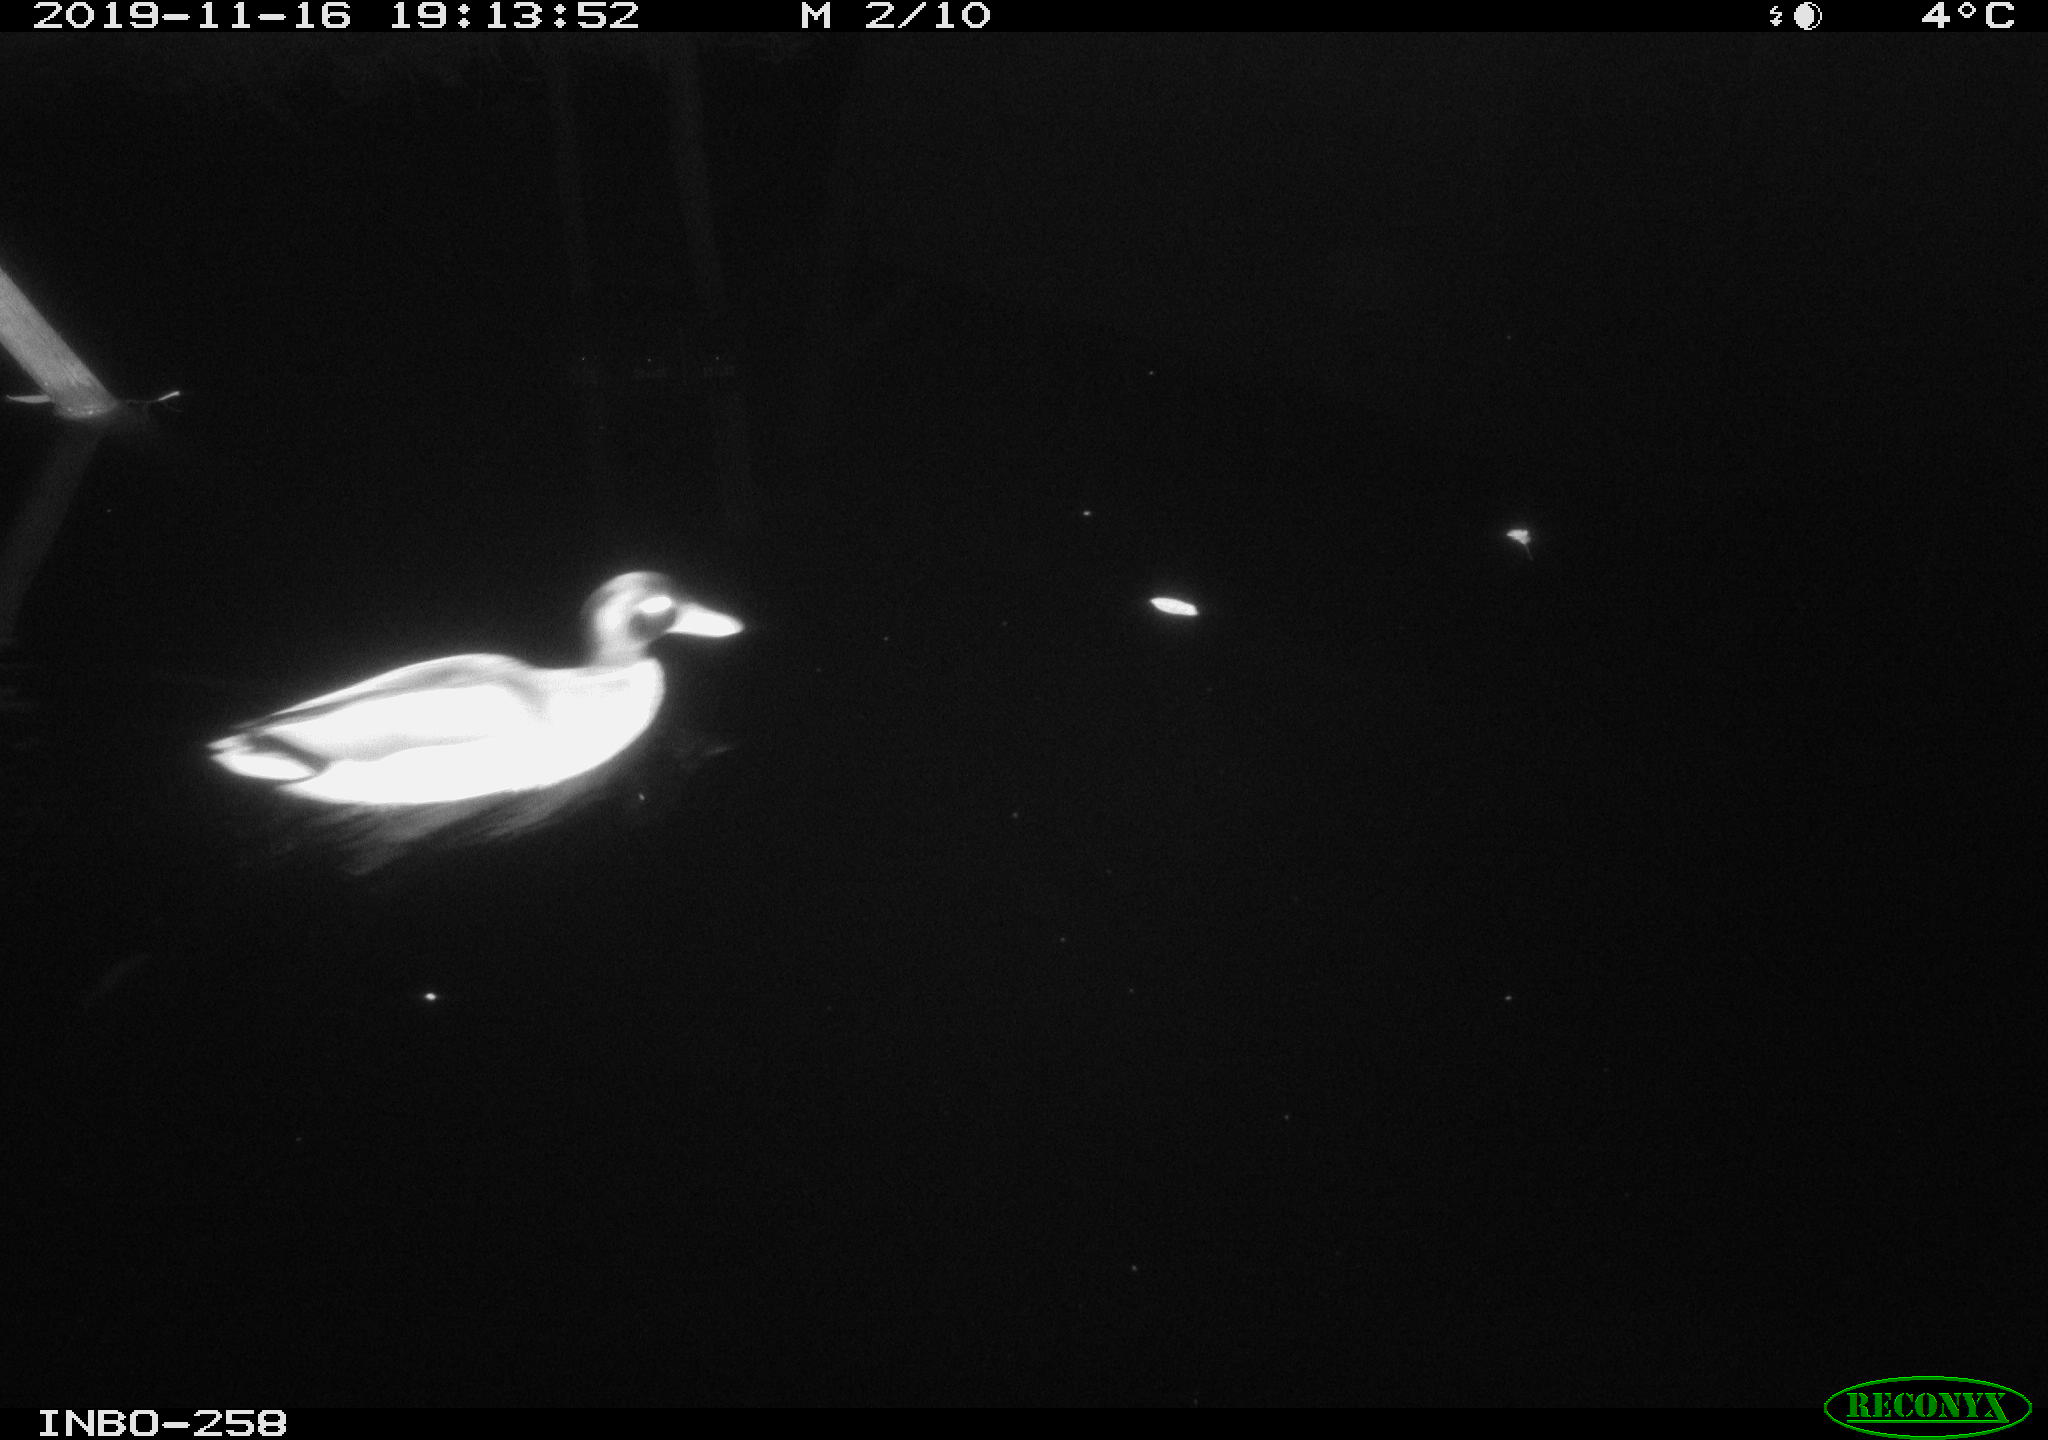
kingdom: Animalia
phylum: Chordata
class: Aves
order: Anseriformes
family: Anatidae
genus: Anas
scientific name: Anas platyrhynchos
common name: Mallard
